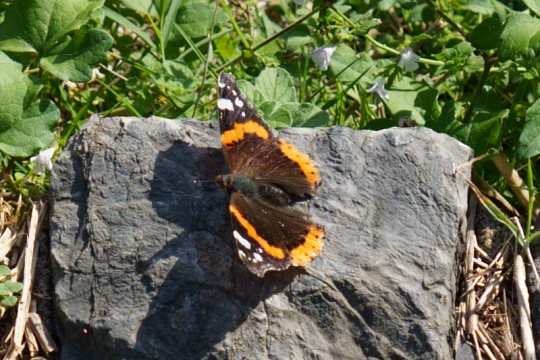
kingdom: Animalia
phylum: Arthropoda
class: Insecta
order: Lepidoptera
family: Nymphalidae
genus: Vanessa
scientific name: Vanessa atalanta
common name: Red Admiral
